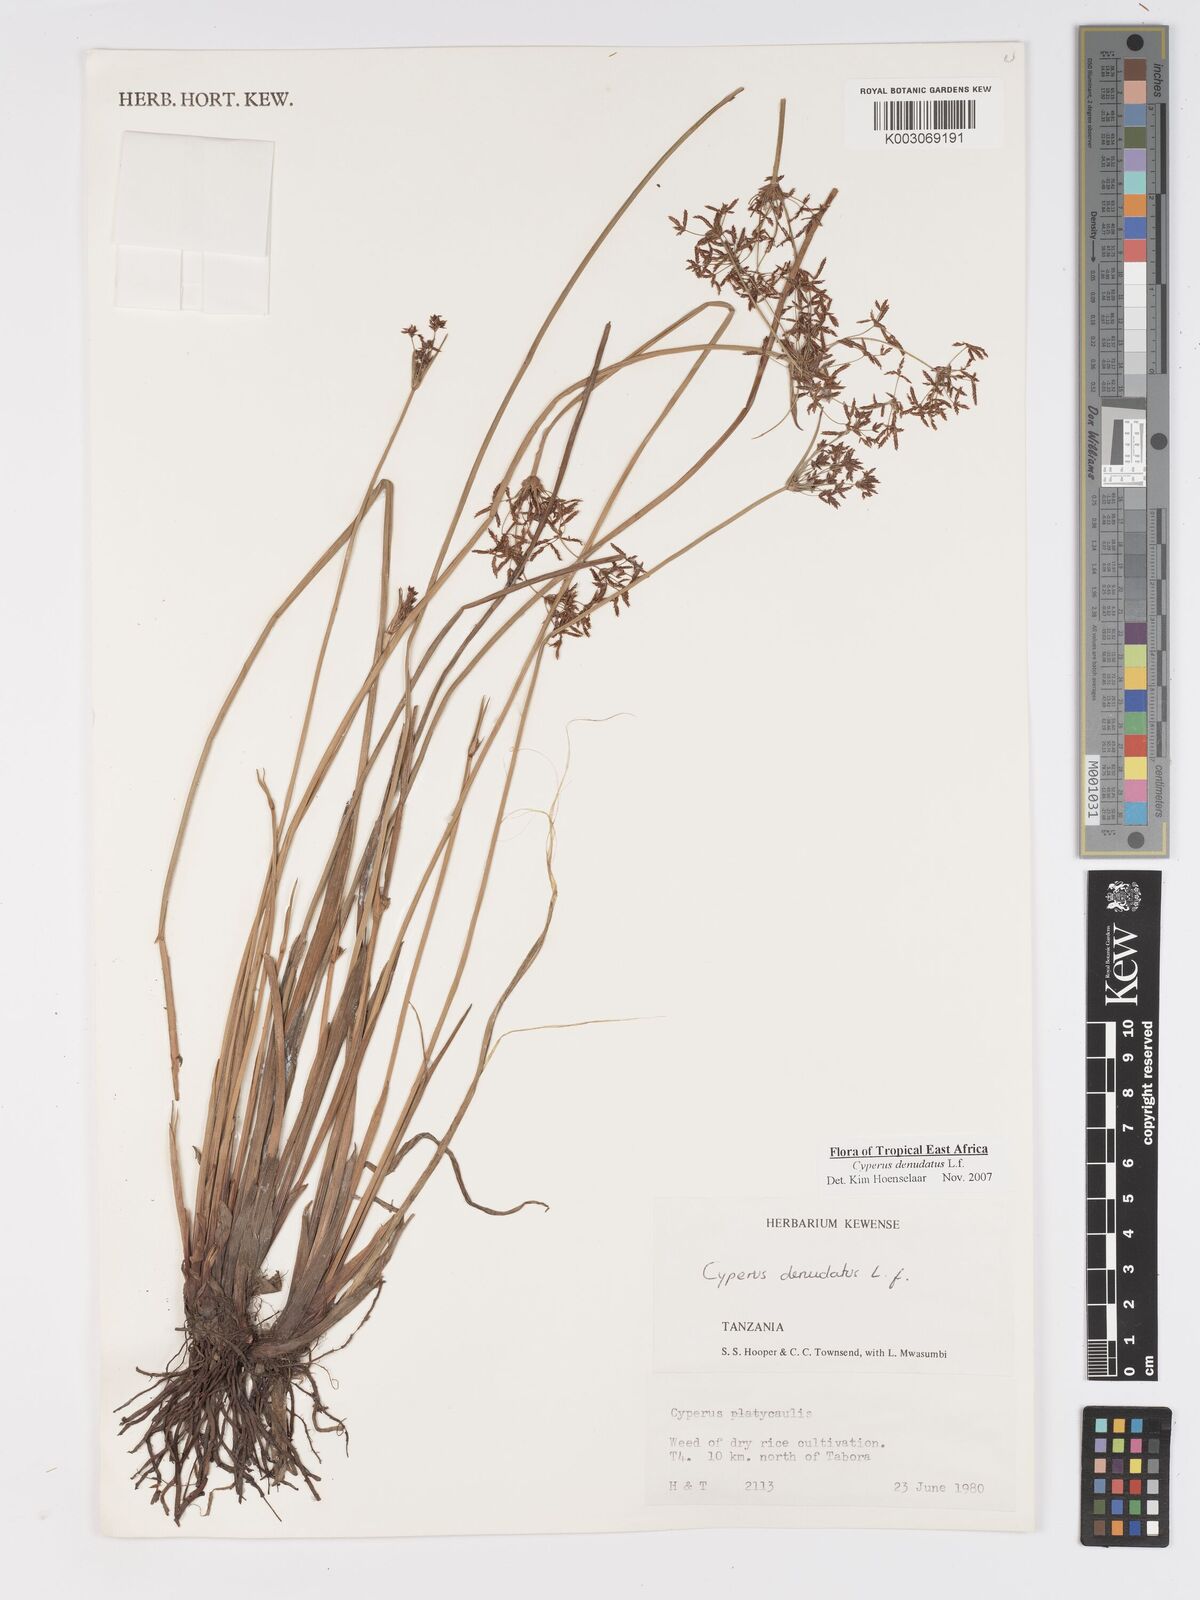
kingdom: Plantae
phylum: Tracheophyta
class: Liliopsida
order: Poales
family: Cyperaceae
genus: Cyperus
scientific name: Cyperus denudatus
